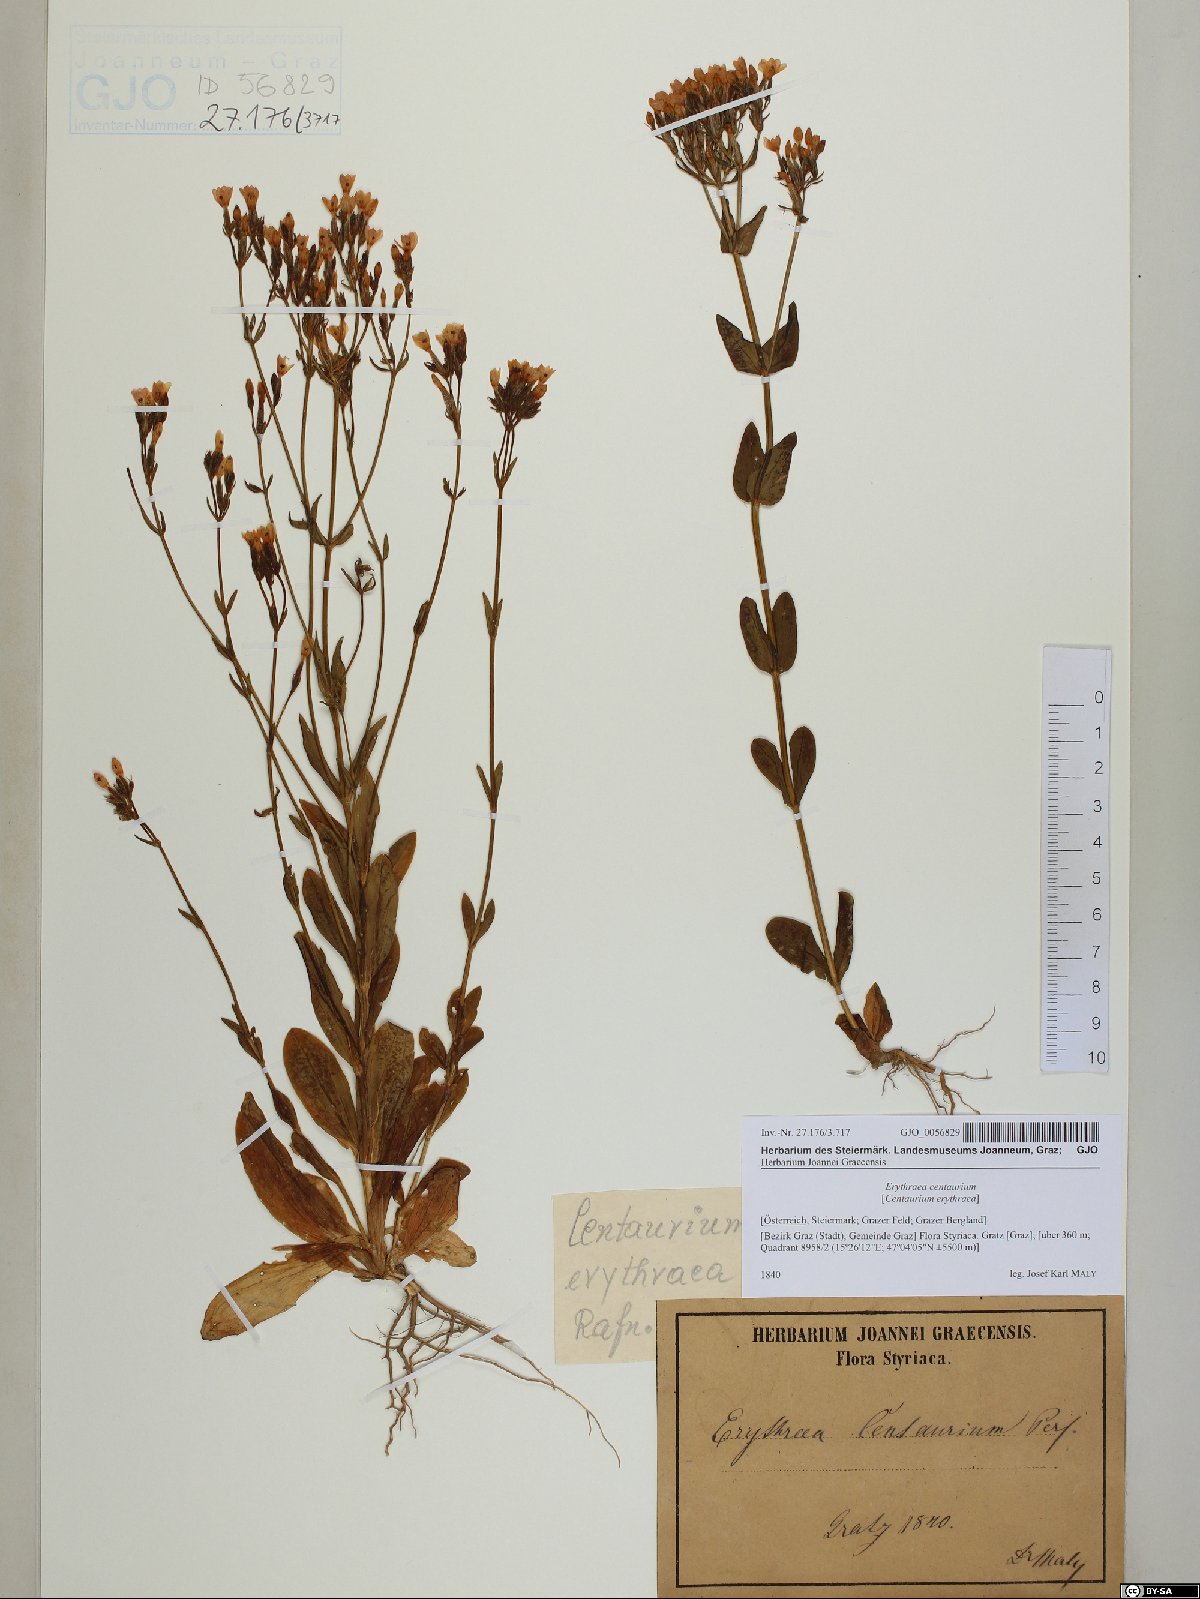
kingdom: Plantae
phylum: Tracheophyta
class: Magnoliopsida
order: Gentianales
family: Gentianaceae
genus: Centaurium
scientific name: Centaurium erythraea
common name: Common centaury
